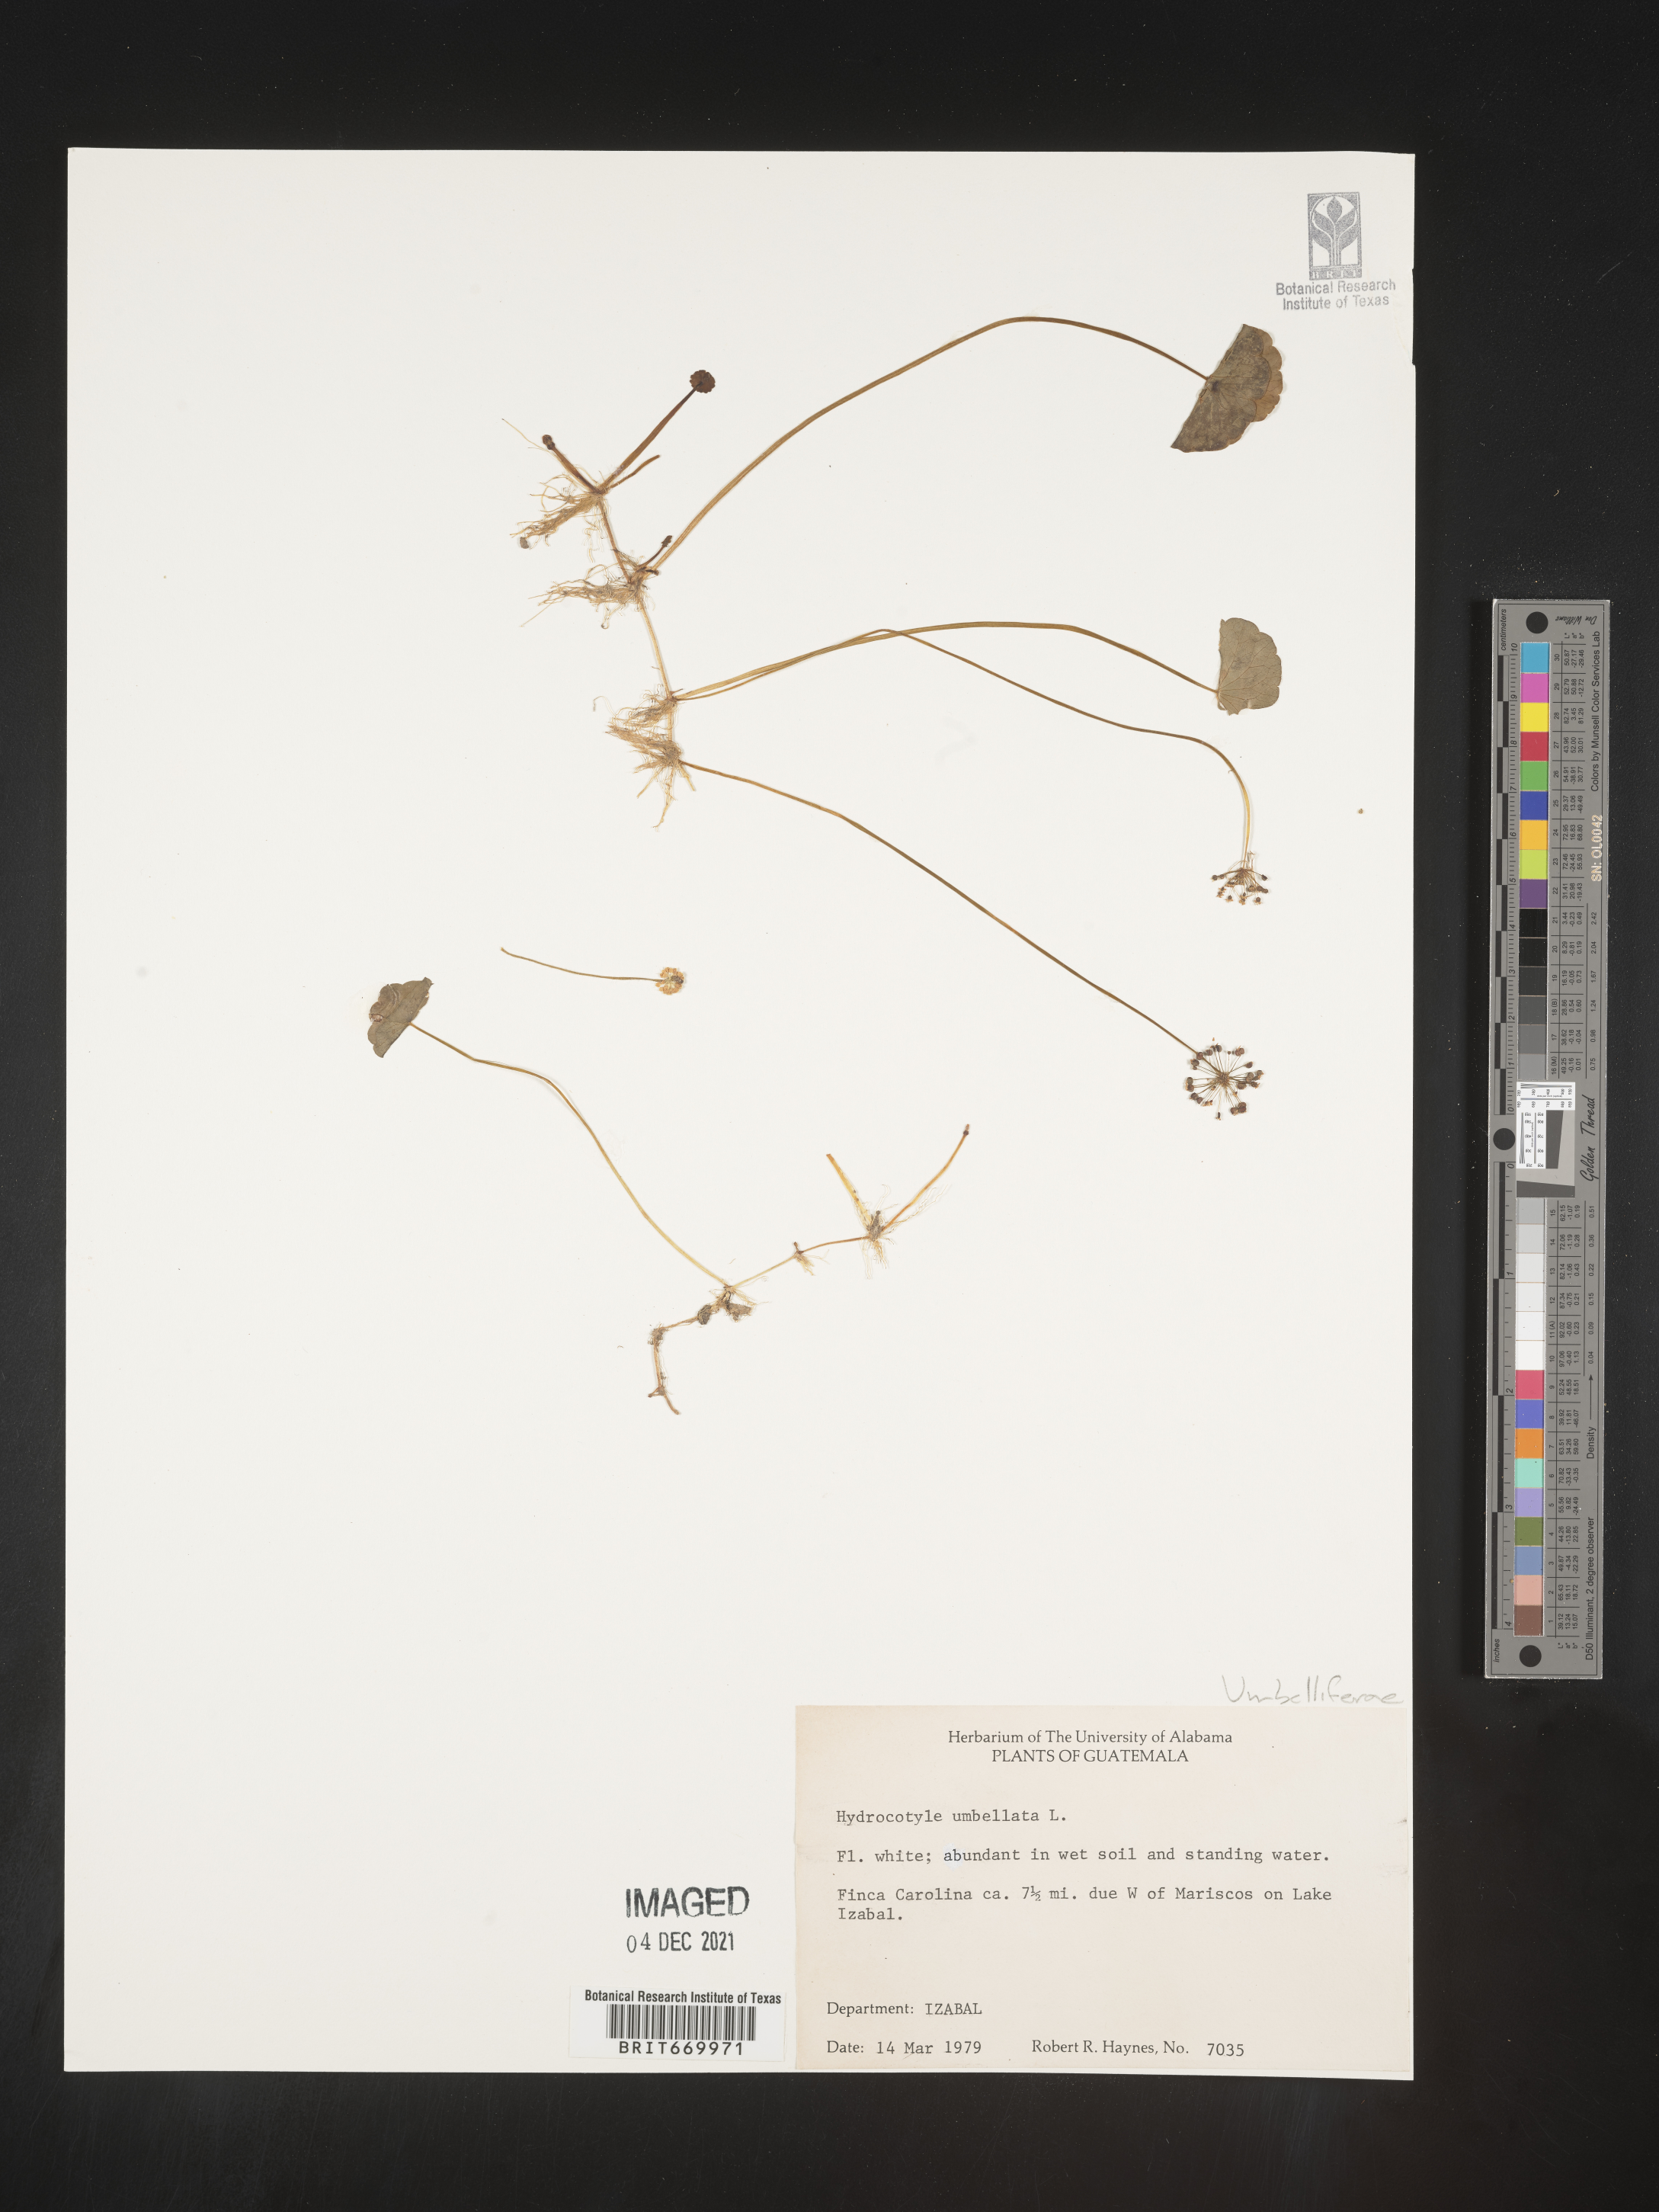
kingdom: Plantae
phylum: Tracheophyta
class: Magnoliopsida
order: Apiales
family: Araliaceae
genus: Hydrocotyle
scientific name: Hydrocotyle
